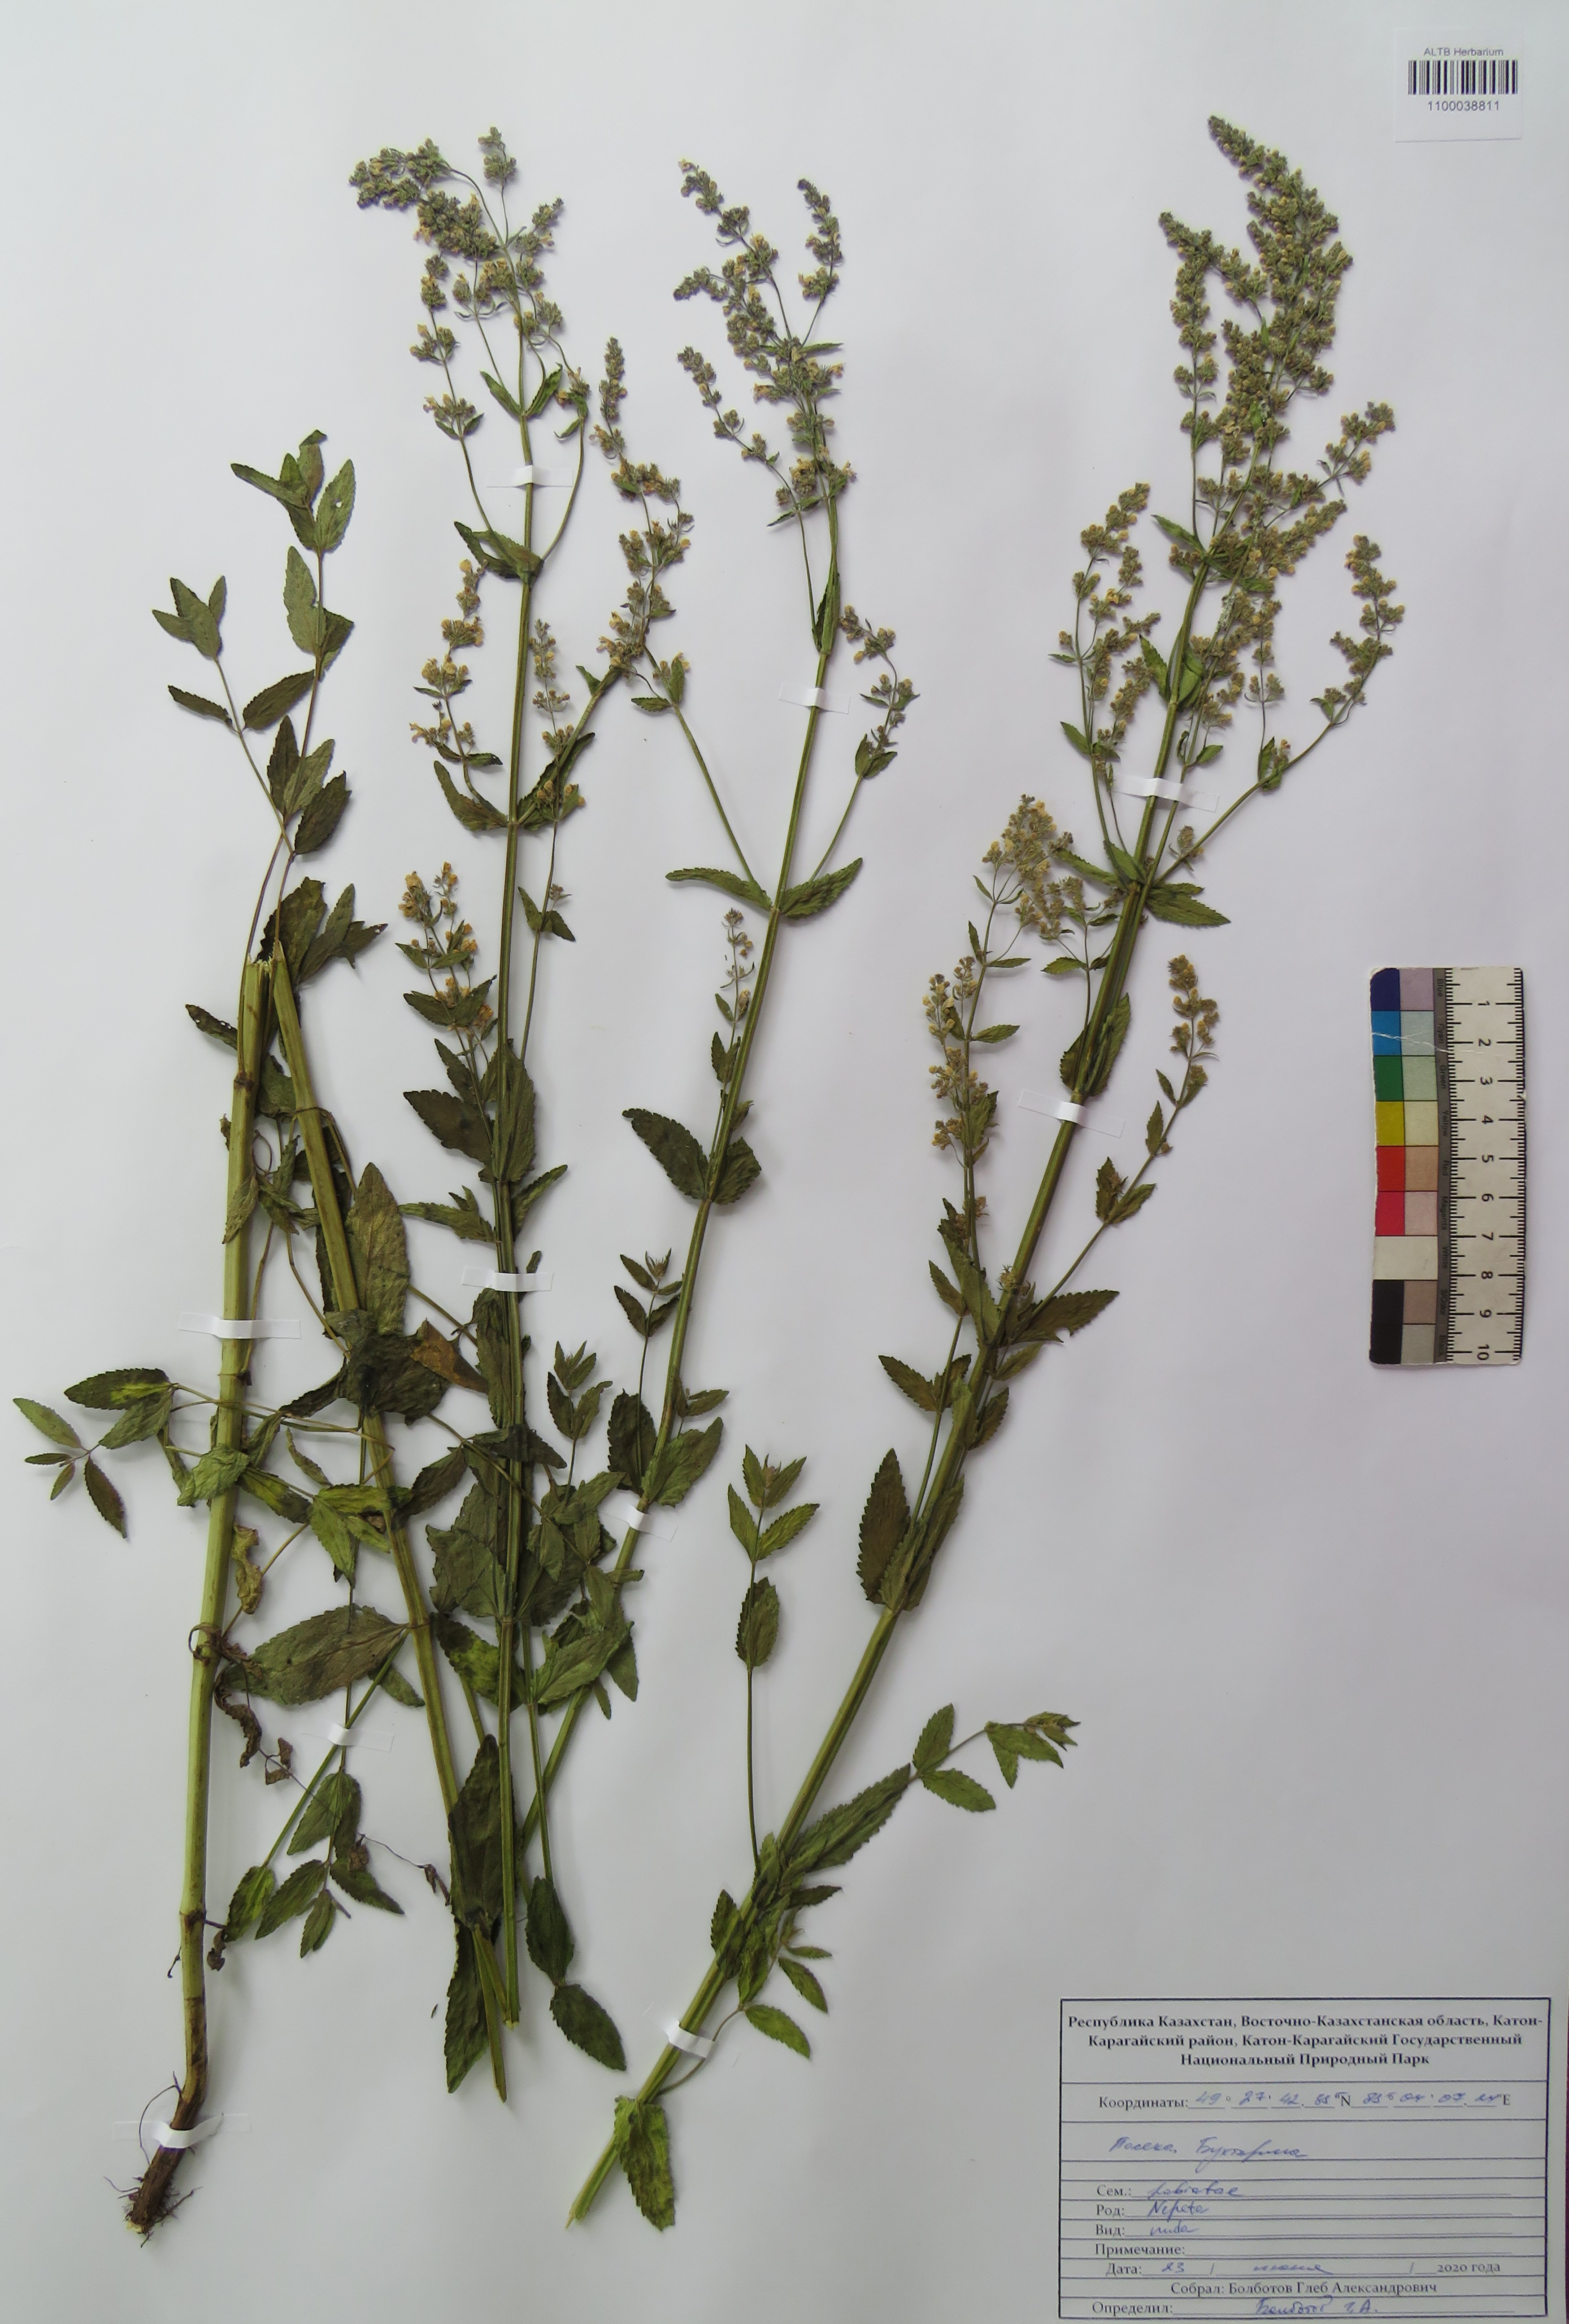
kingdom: Plantae
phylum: Tracheophyta
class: Magnoliopsida
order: Lamiales
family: Lamiaceae
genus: Nepeta
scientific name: Nepeta nuda
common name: Hairless catmint
